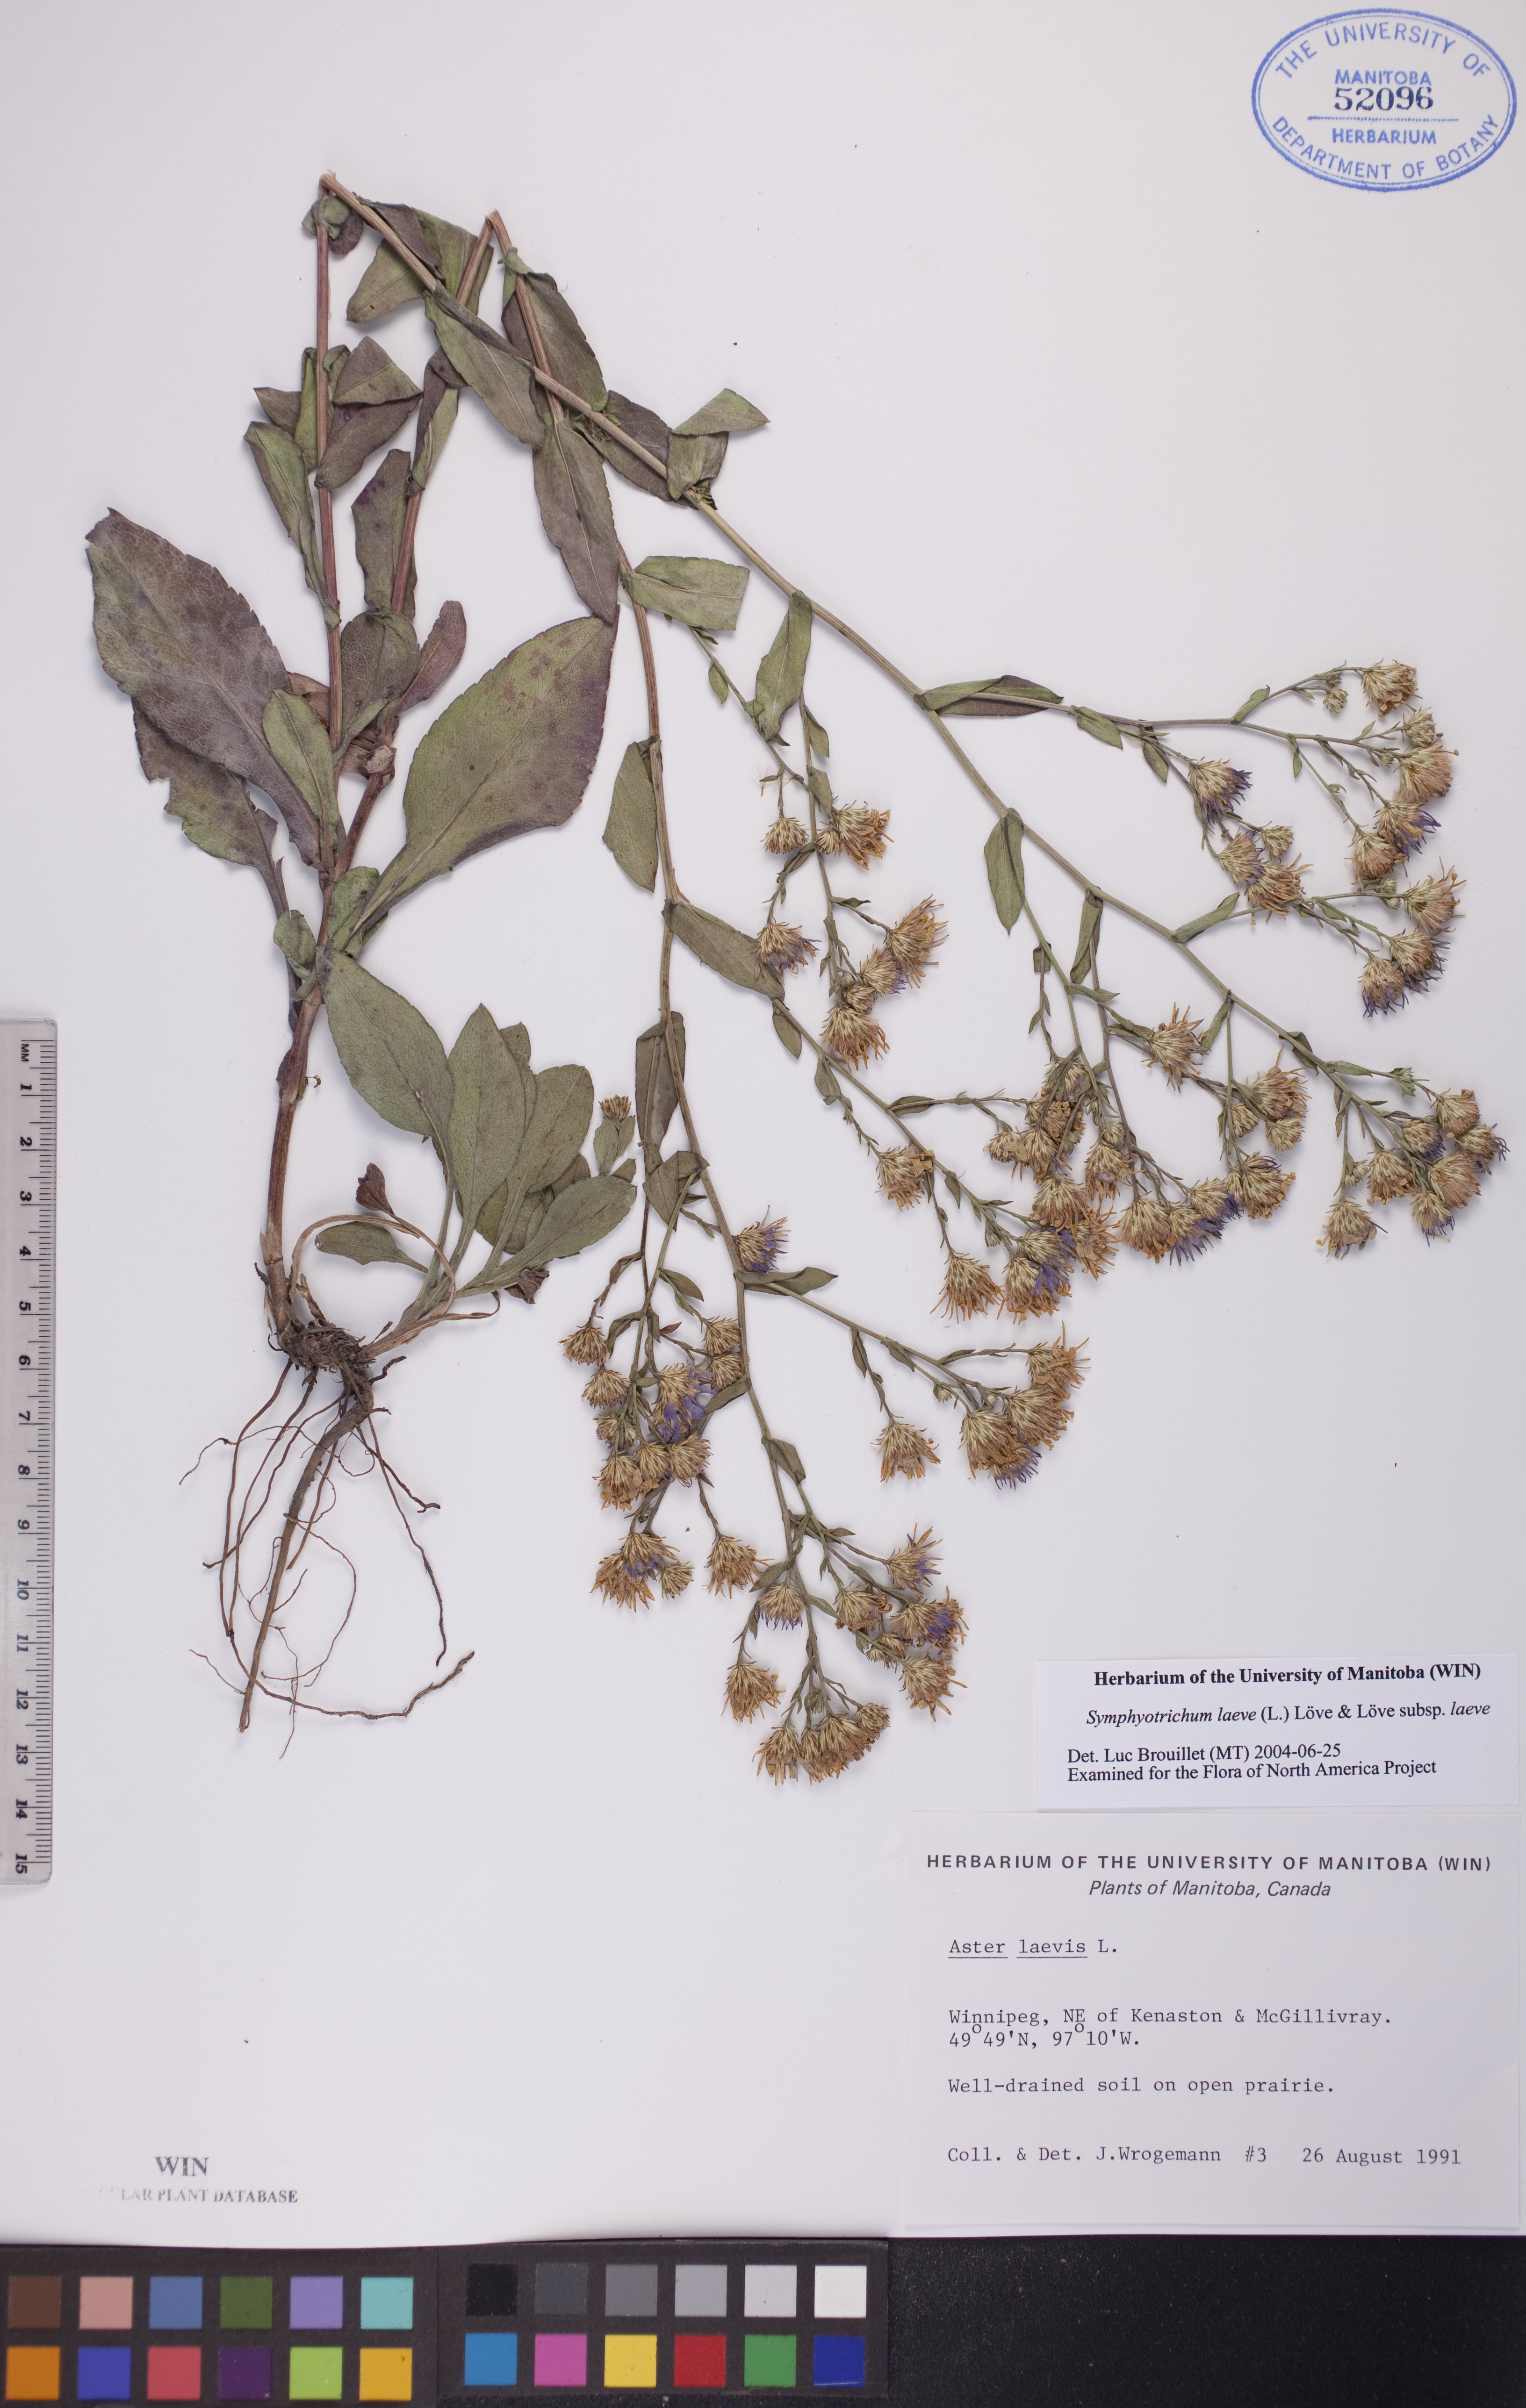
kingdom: Plantae
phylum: Tracheophyta
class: Magnoliopsida
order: Asterales
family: Asteraceae
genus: Symphyotrichum
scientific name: Symphyotrichum laeve
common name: Glaucous aster
